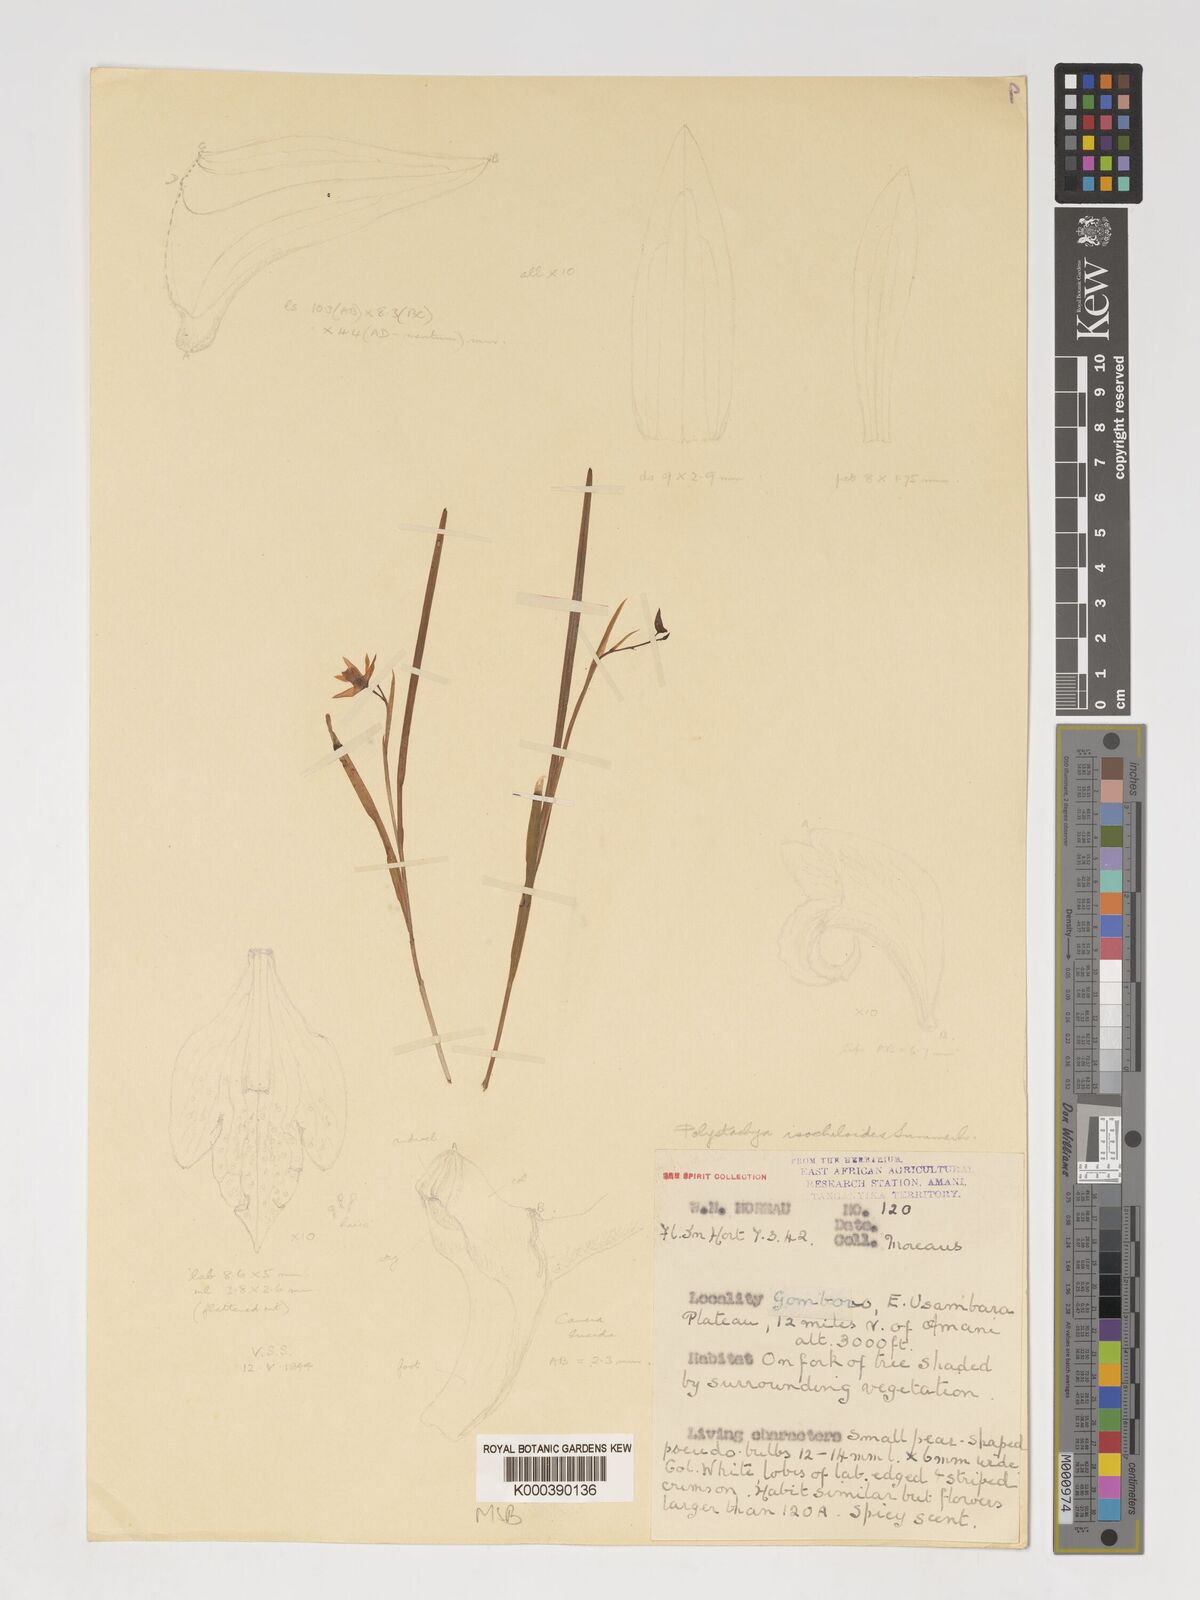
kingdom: Plantae
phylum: Tracheophyta
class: Liliopsida
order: Asparagales
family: Orchidaceae
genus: Polystachya
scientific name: Polystachya isochiloides
